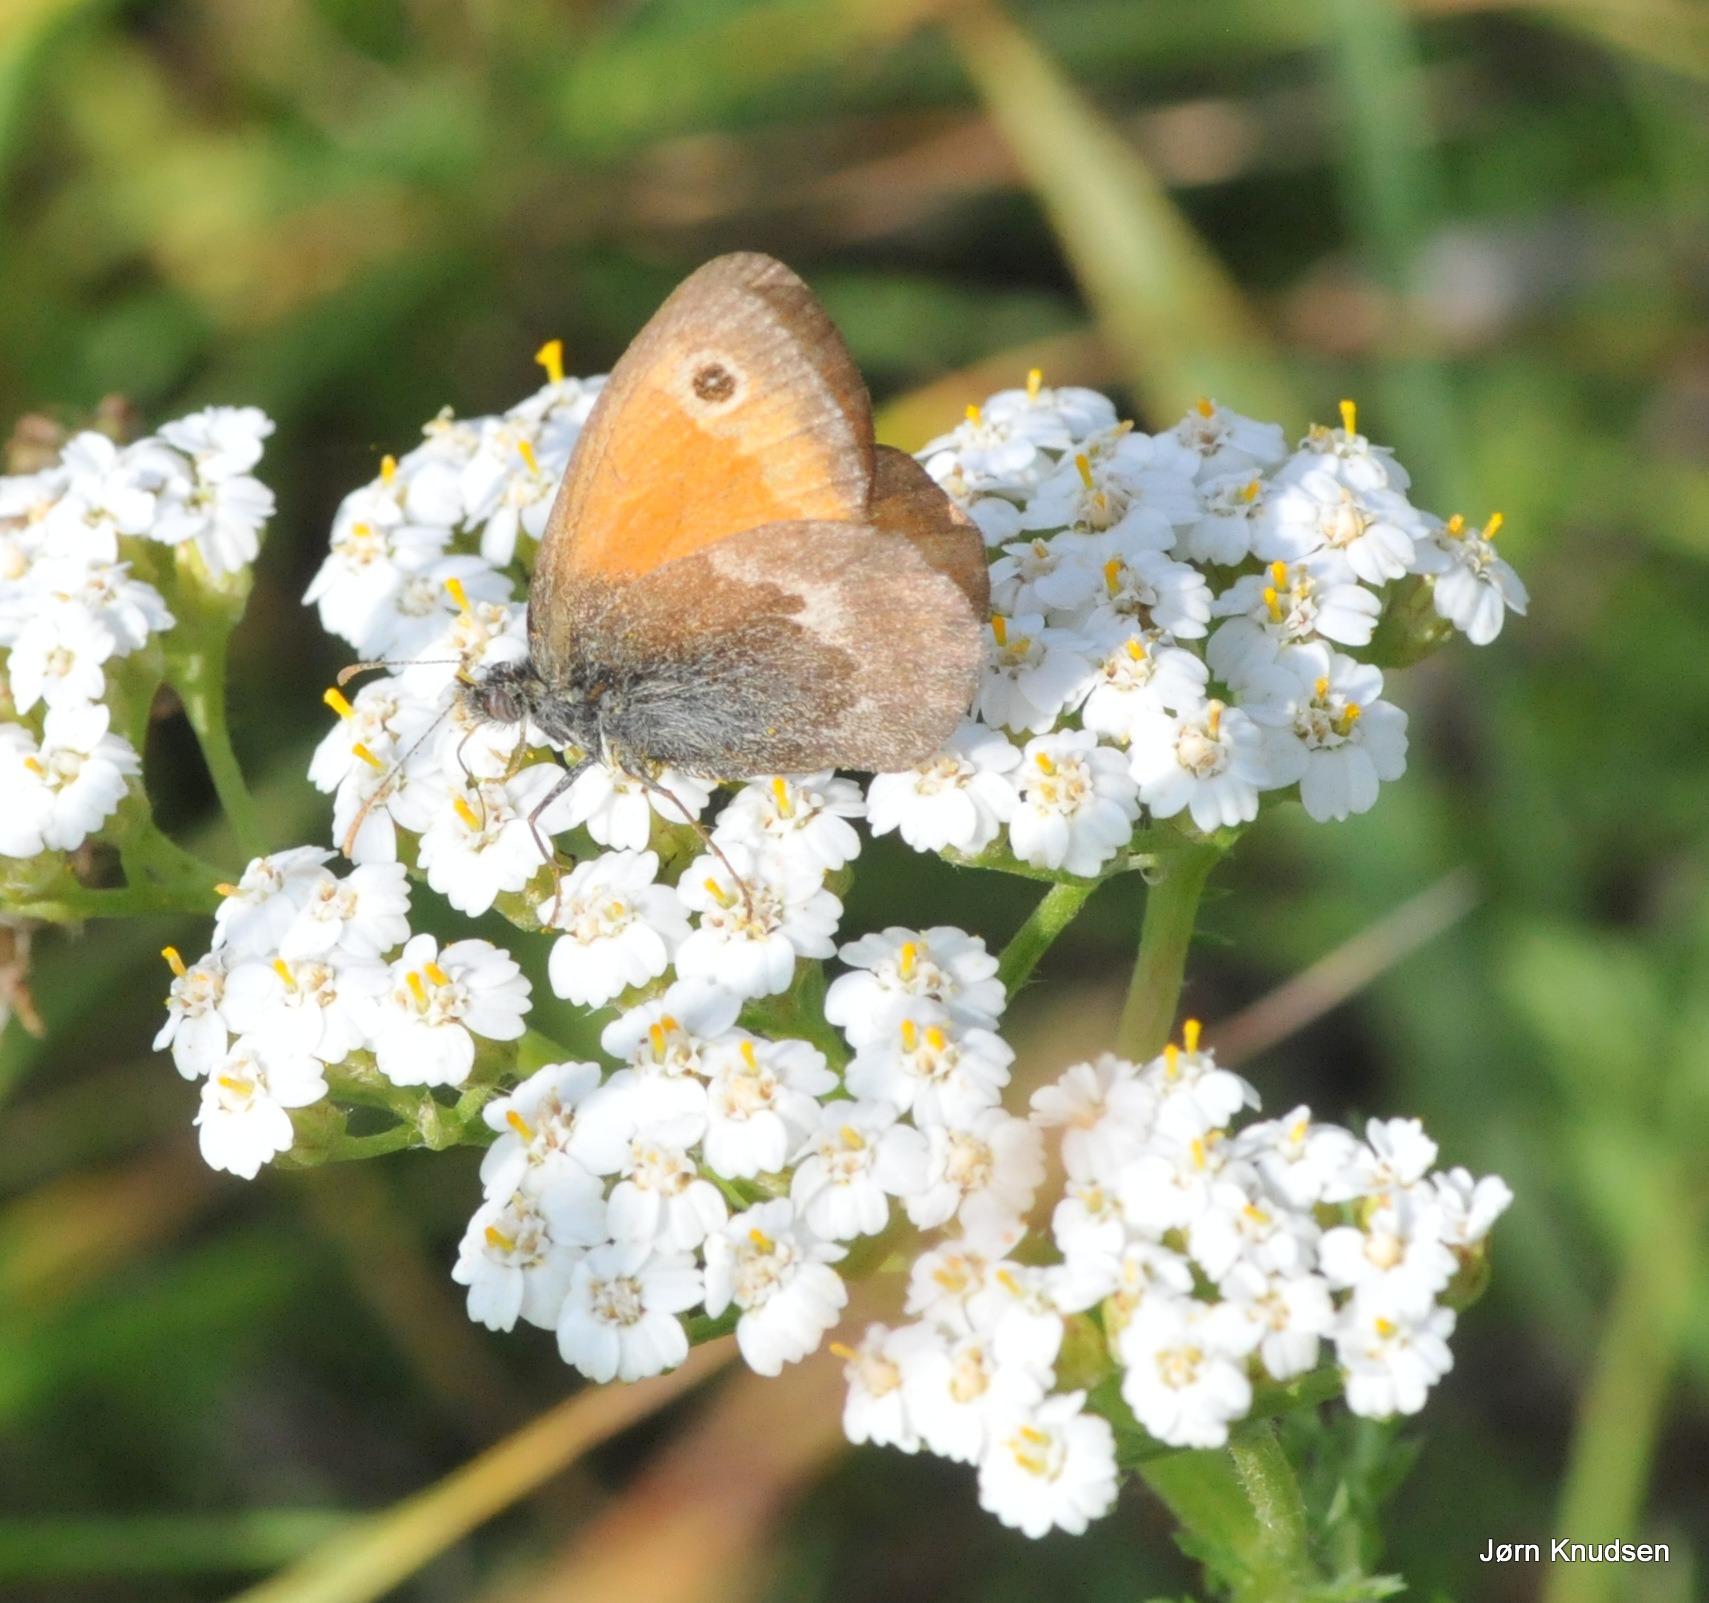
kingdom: Animalia
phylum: Arthropoda
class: Insecta
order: Lepidoptera
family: Nymphalidae
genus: Coenonympha
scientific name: Coenonympha pamphilus
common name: Okkergul randøje
